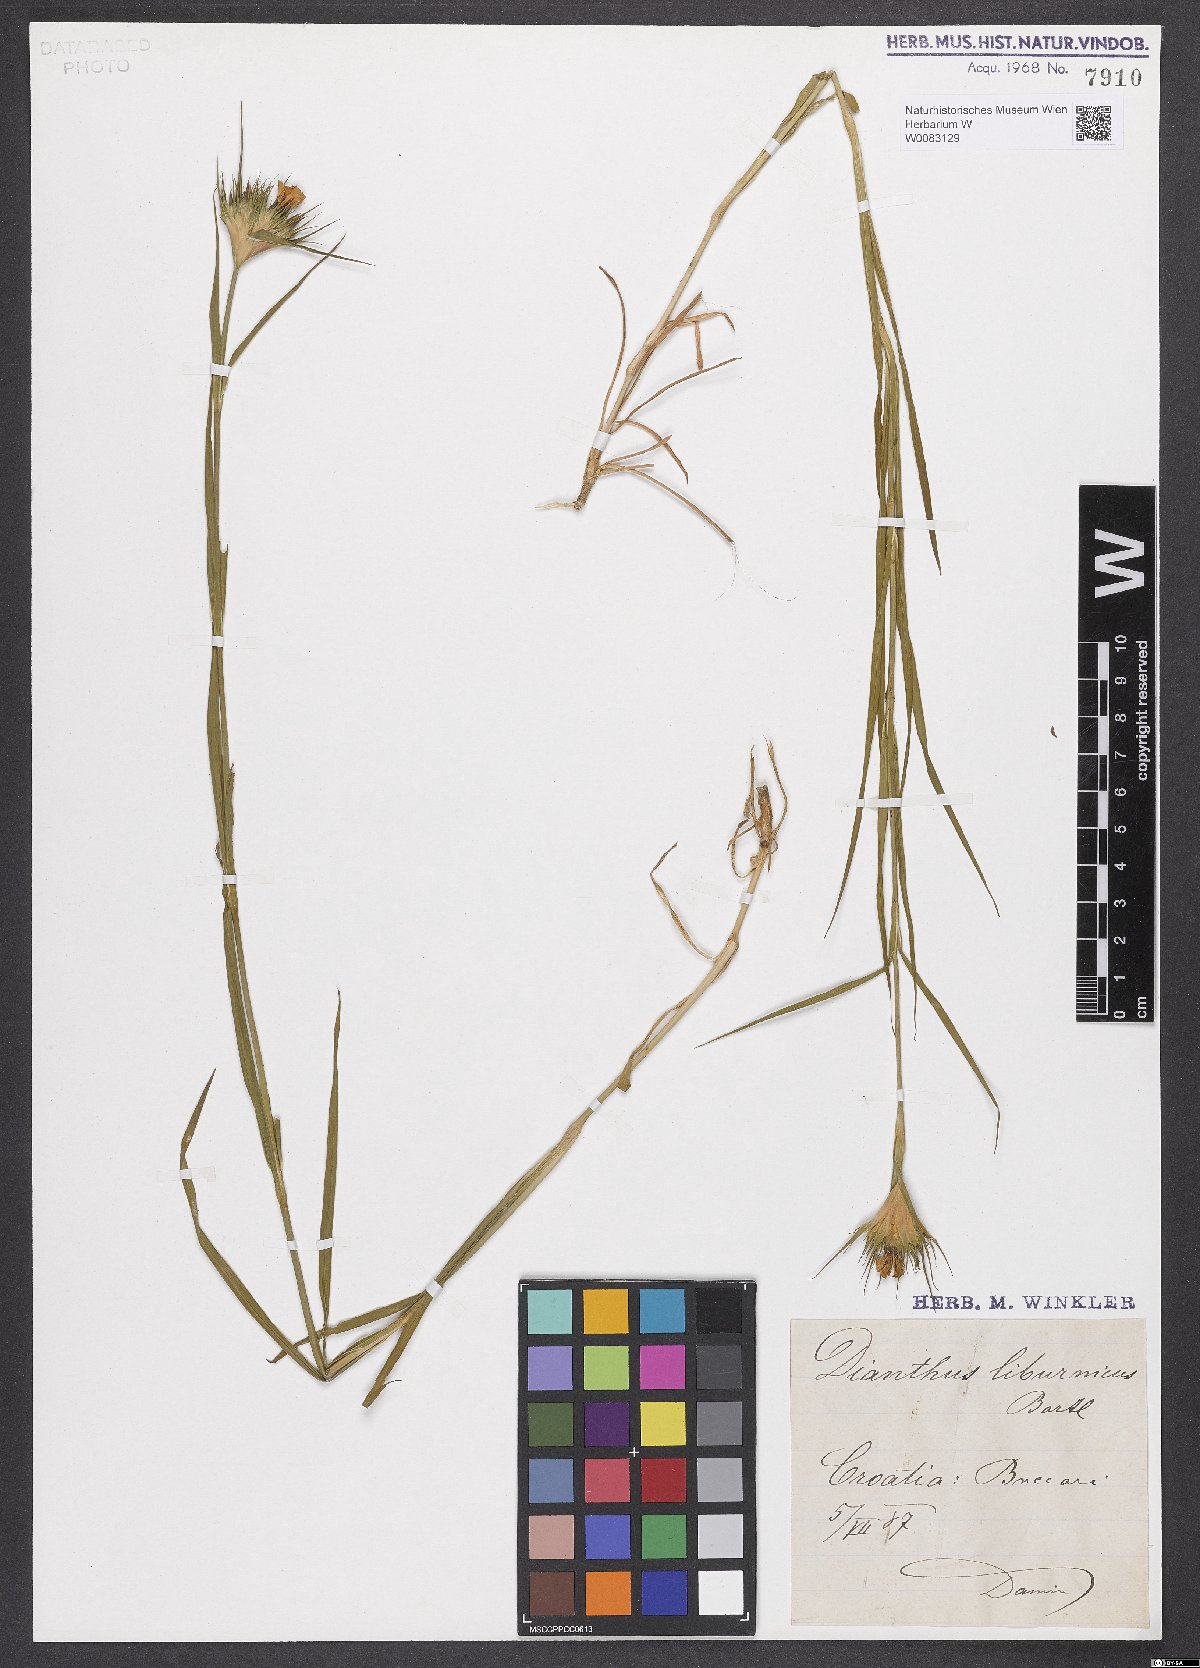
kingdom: Plantae
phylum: Tracheophyta
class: Magnoliopsida
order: Caryophyllales
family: Caryophyllaceae
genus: Dianthus
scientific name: Dianthus balbisii
